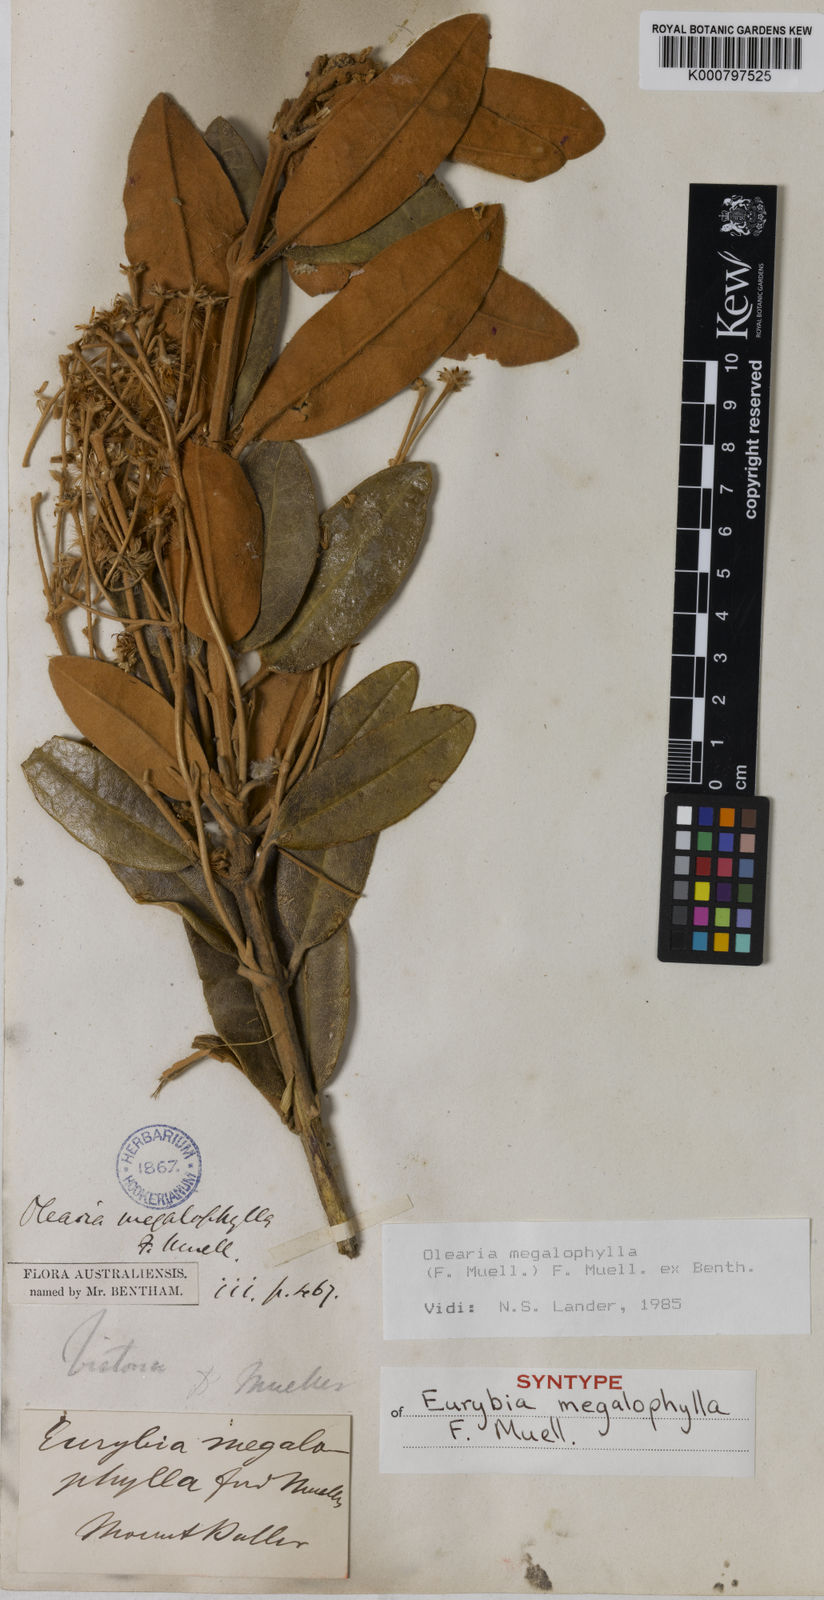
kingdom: Plantae
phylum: Tracheophyta
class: Magnoliopsida
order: Asterales
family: Asteraceae
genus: Olearia
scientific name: Olearia megalophylla
